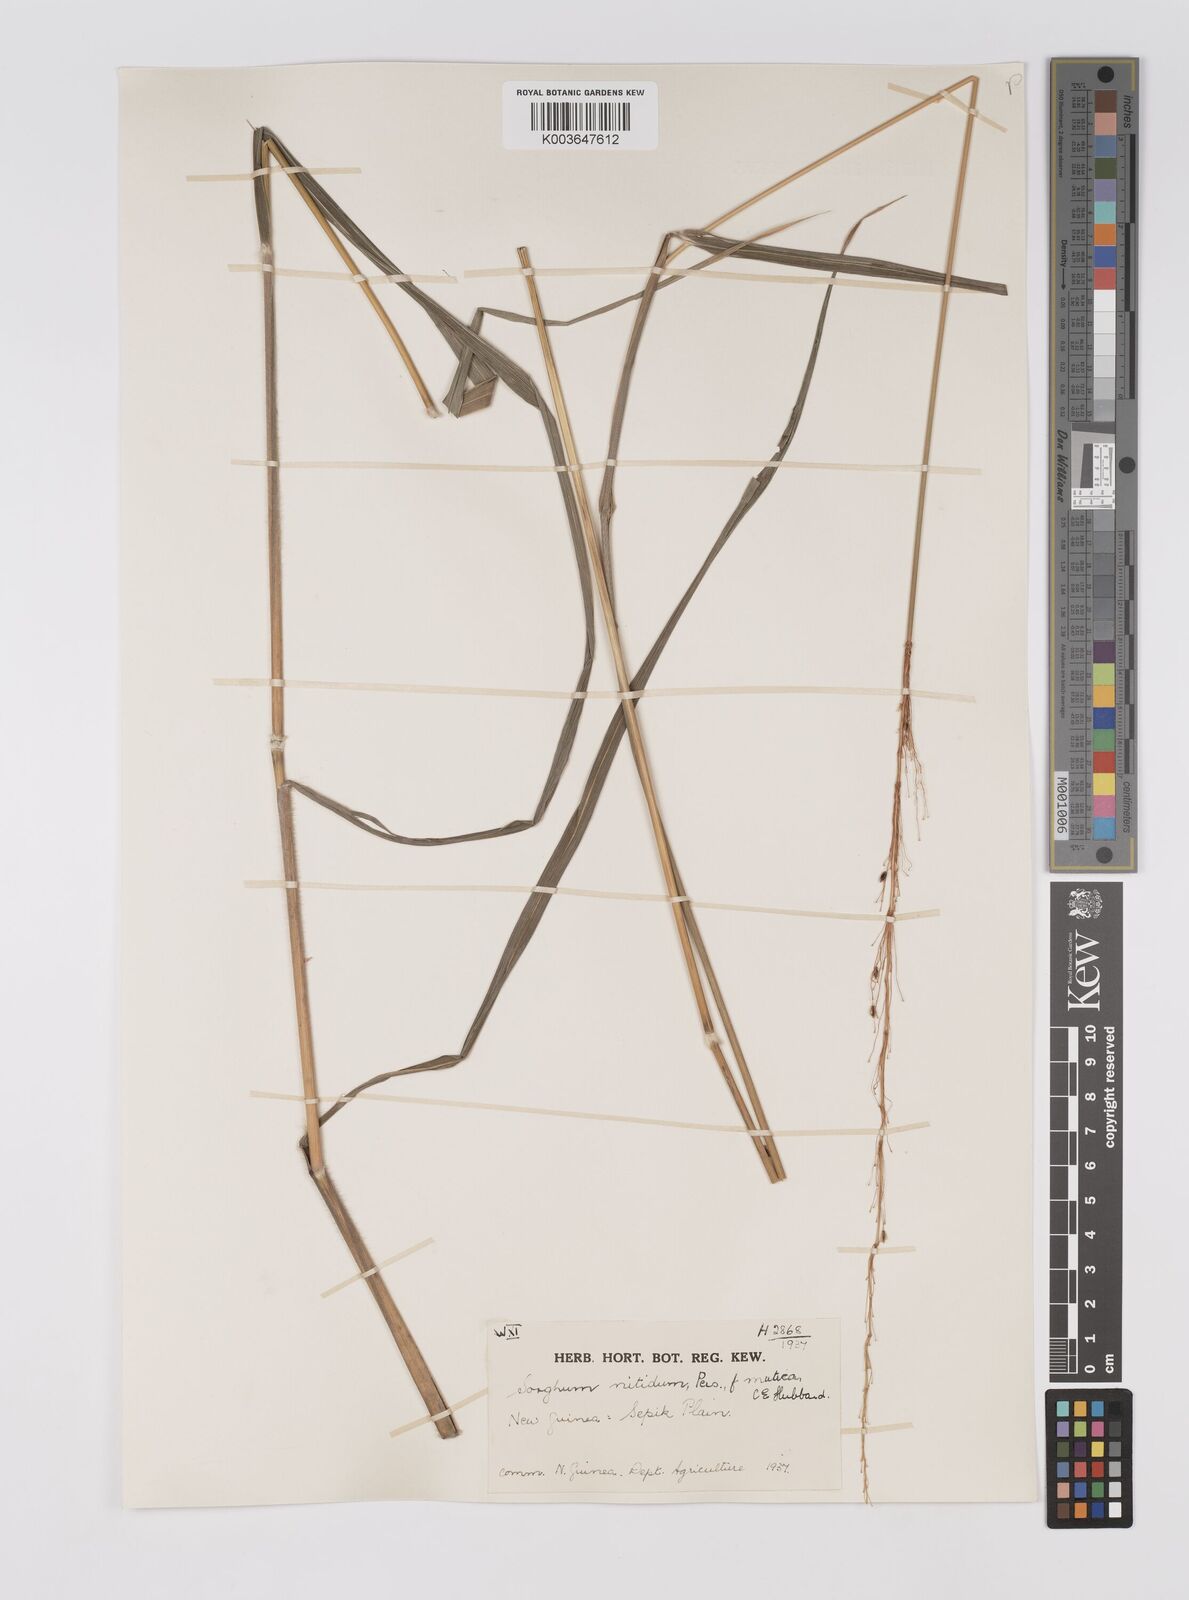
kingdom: Plantae
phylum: Tracheophyta
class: Liliopsida
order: Poales
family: Poaceae
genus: Sorghum
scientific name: Sorghum nitidum
